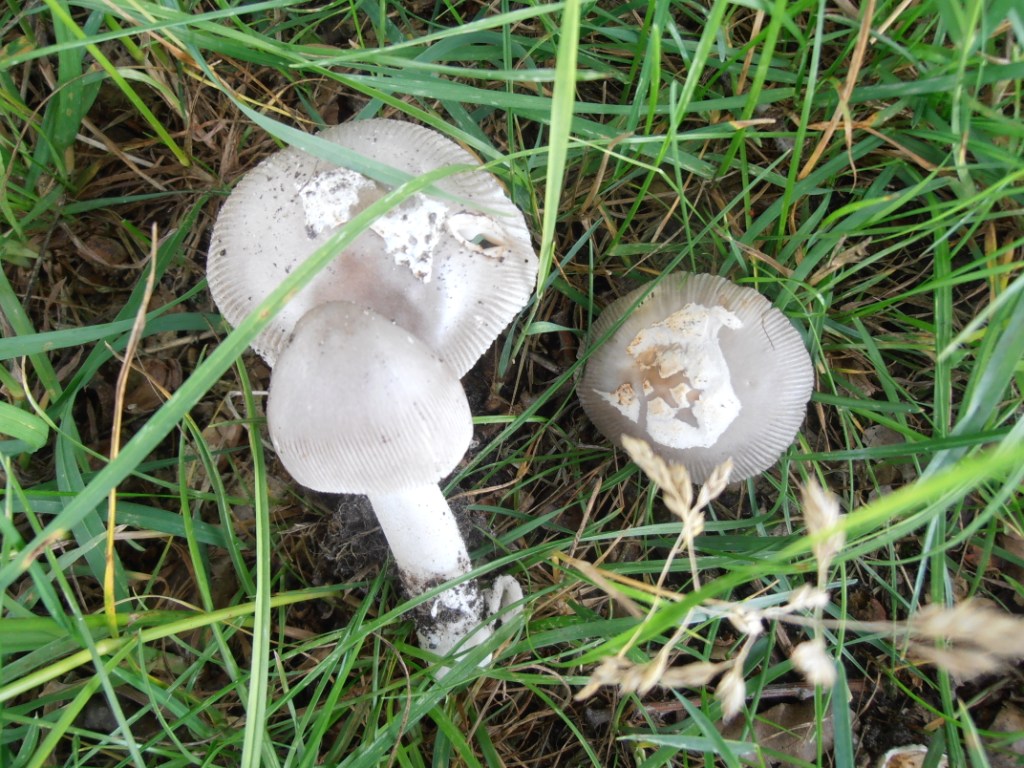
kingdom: Fungi
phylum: Basidiomycota
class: Agaricomycetes
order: Agaricales
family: Amanitaceae
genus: Amanita
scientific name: Amanita vaginata
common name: grå kam-fluesvamp
